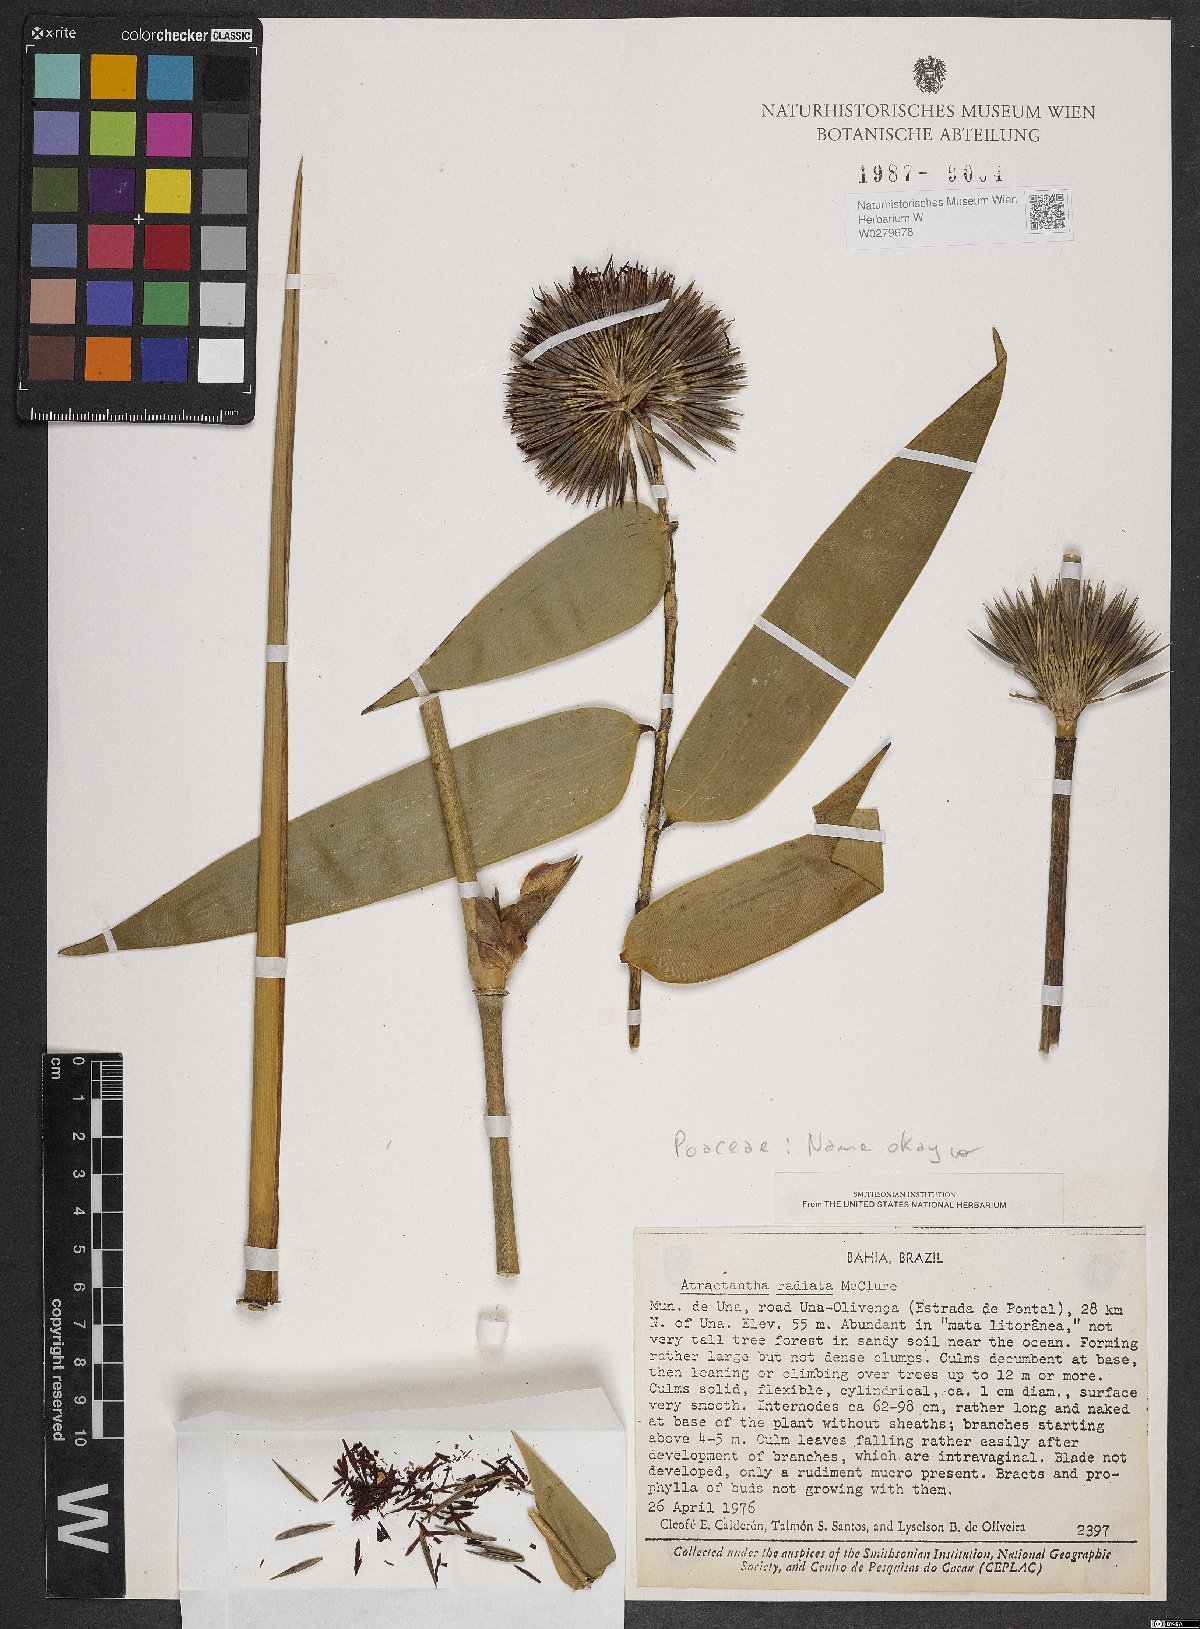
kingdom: Plantae
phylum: Tracheophyta
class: Liliopsida
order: Poales
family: Poaceae
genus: Atractantha
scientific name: Atractantha radiata
